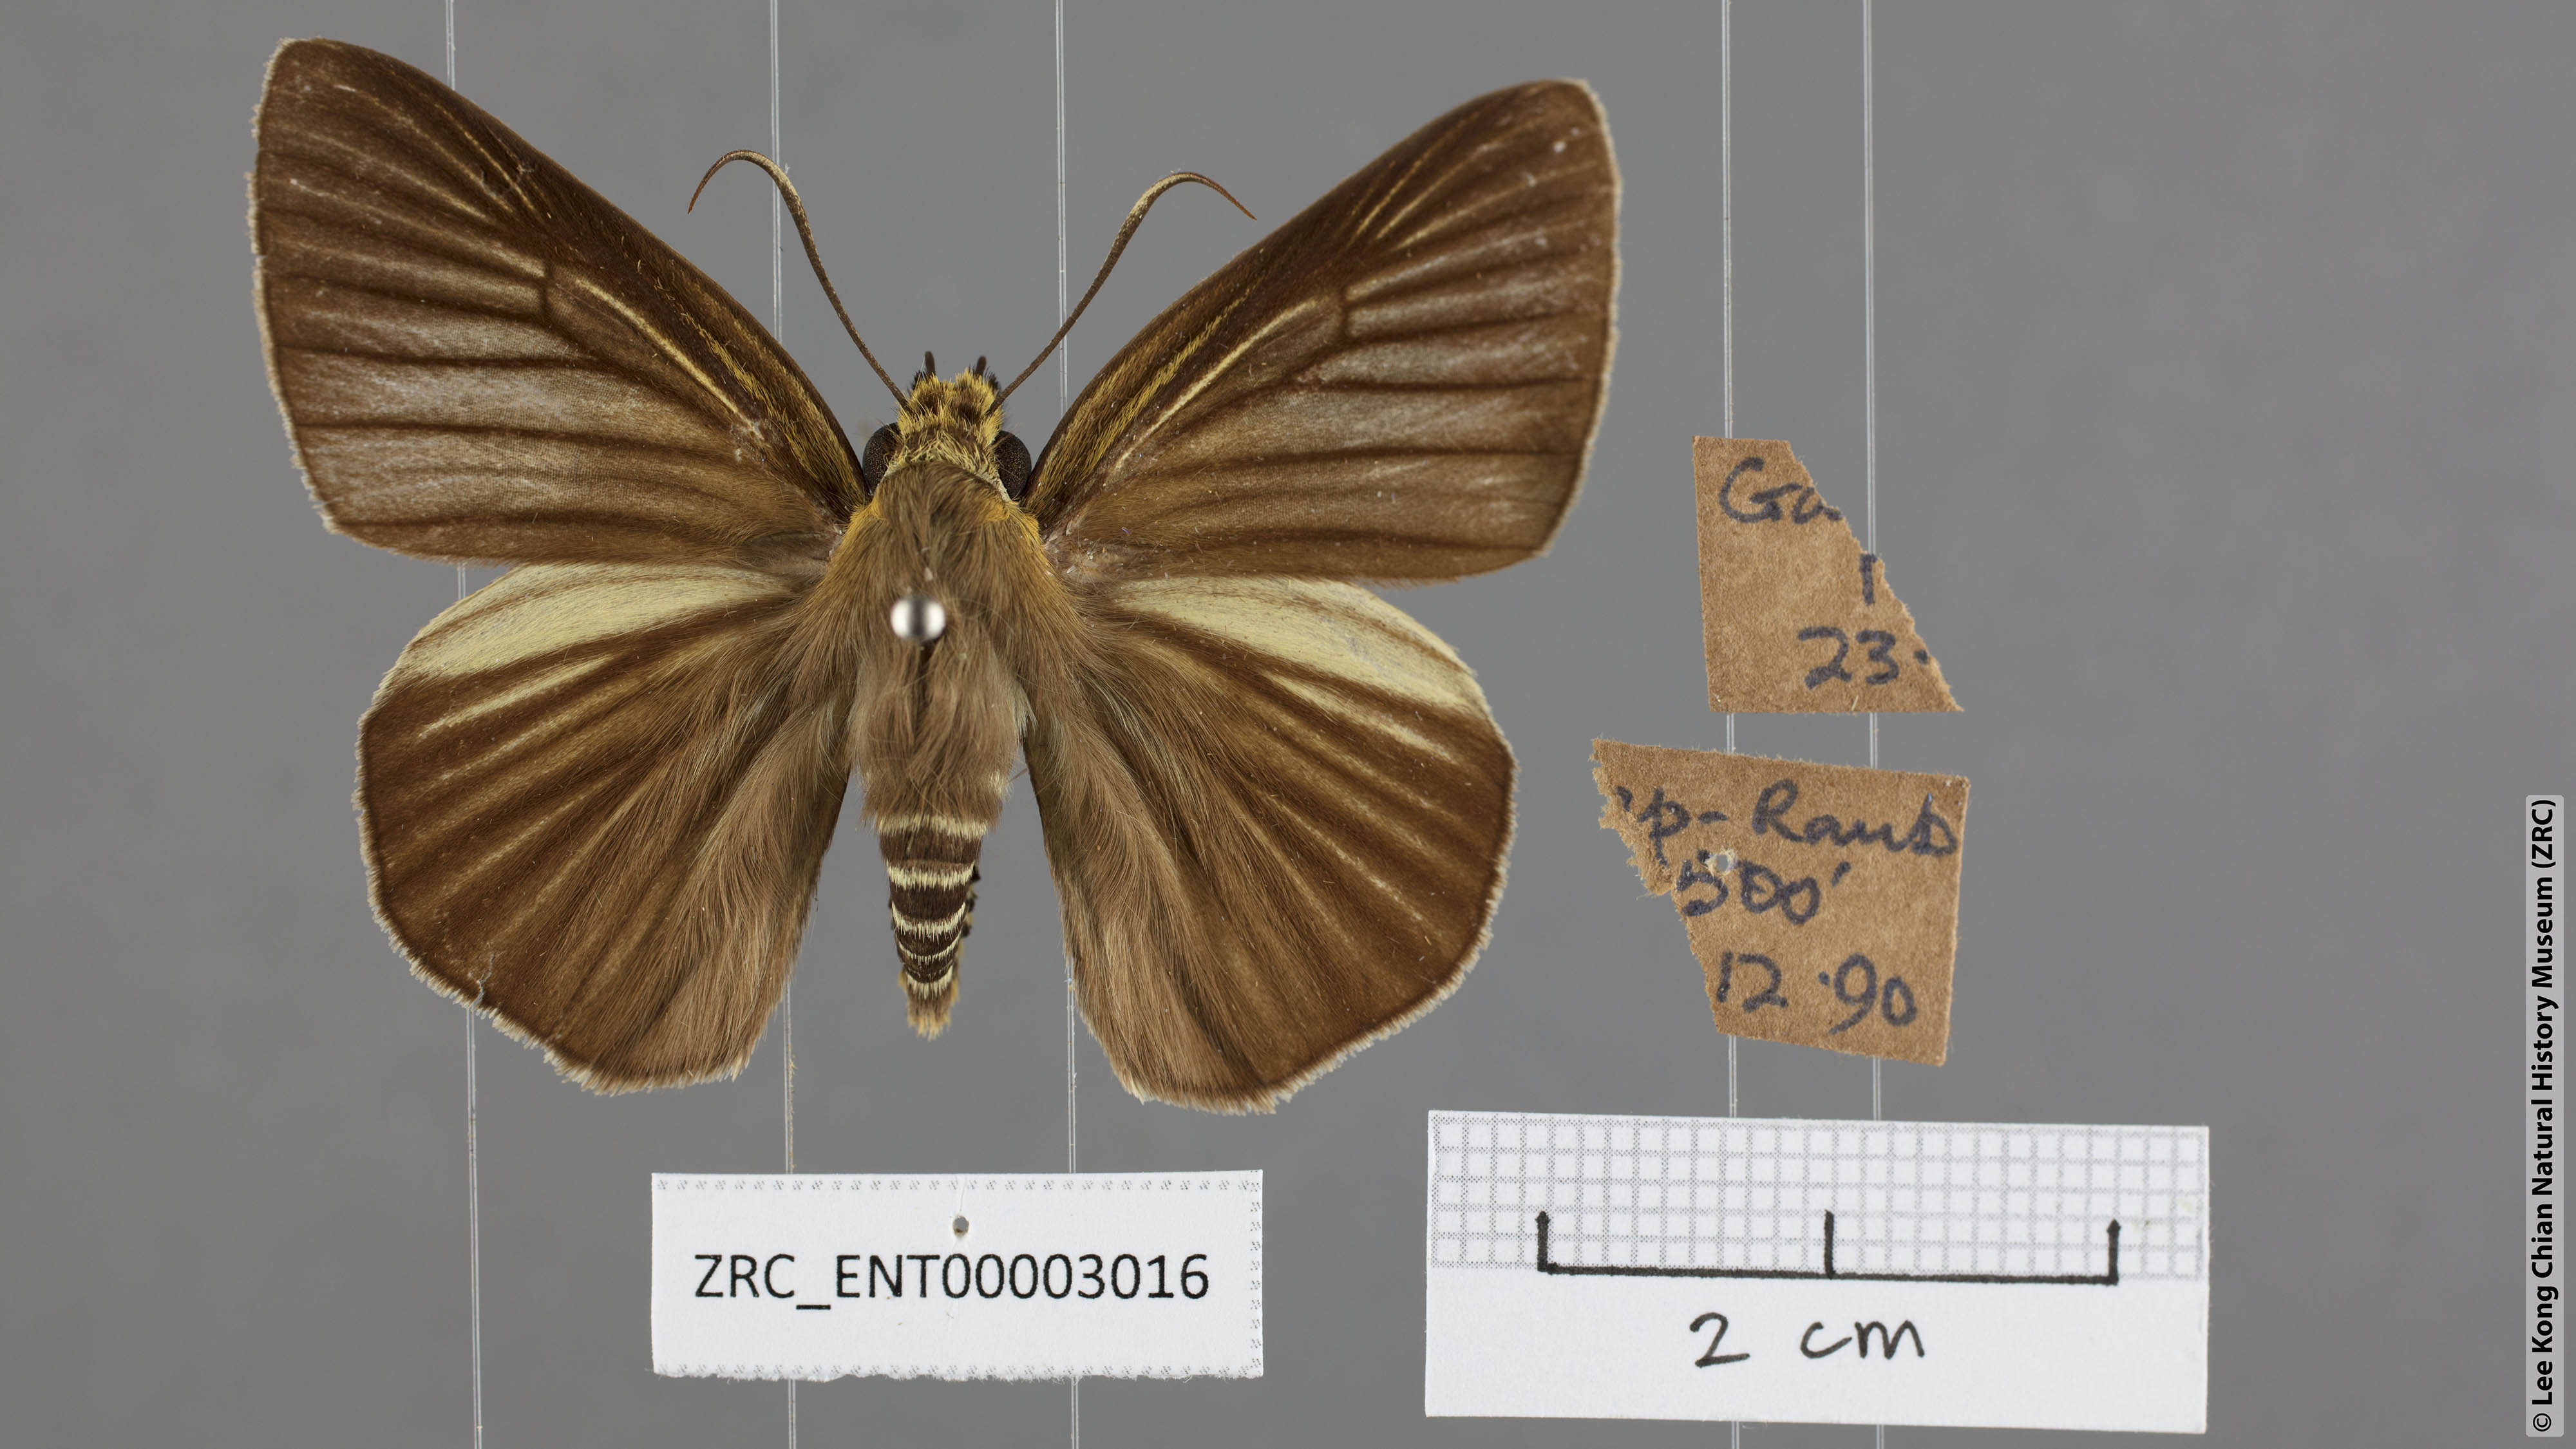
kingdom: Animalia
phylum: Arthropoda
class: Insecta
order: Lepidoptera
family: Hesperiidae
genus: Bibasis
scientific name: Bibasis gomata
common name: Pale green awlet
